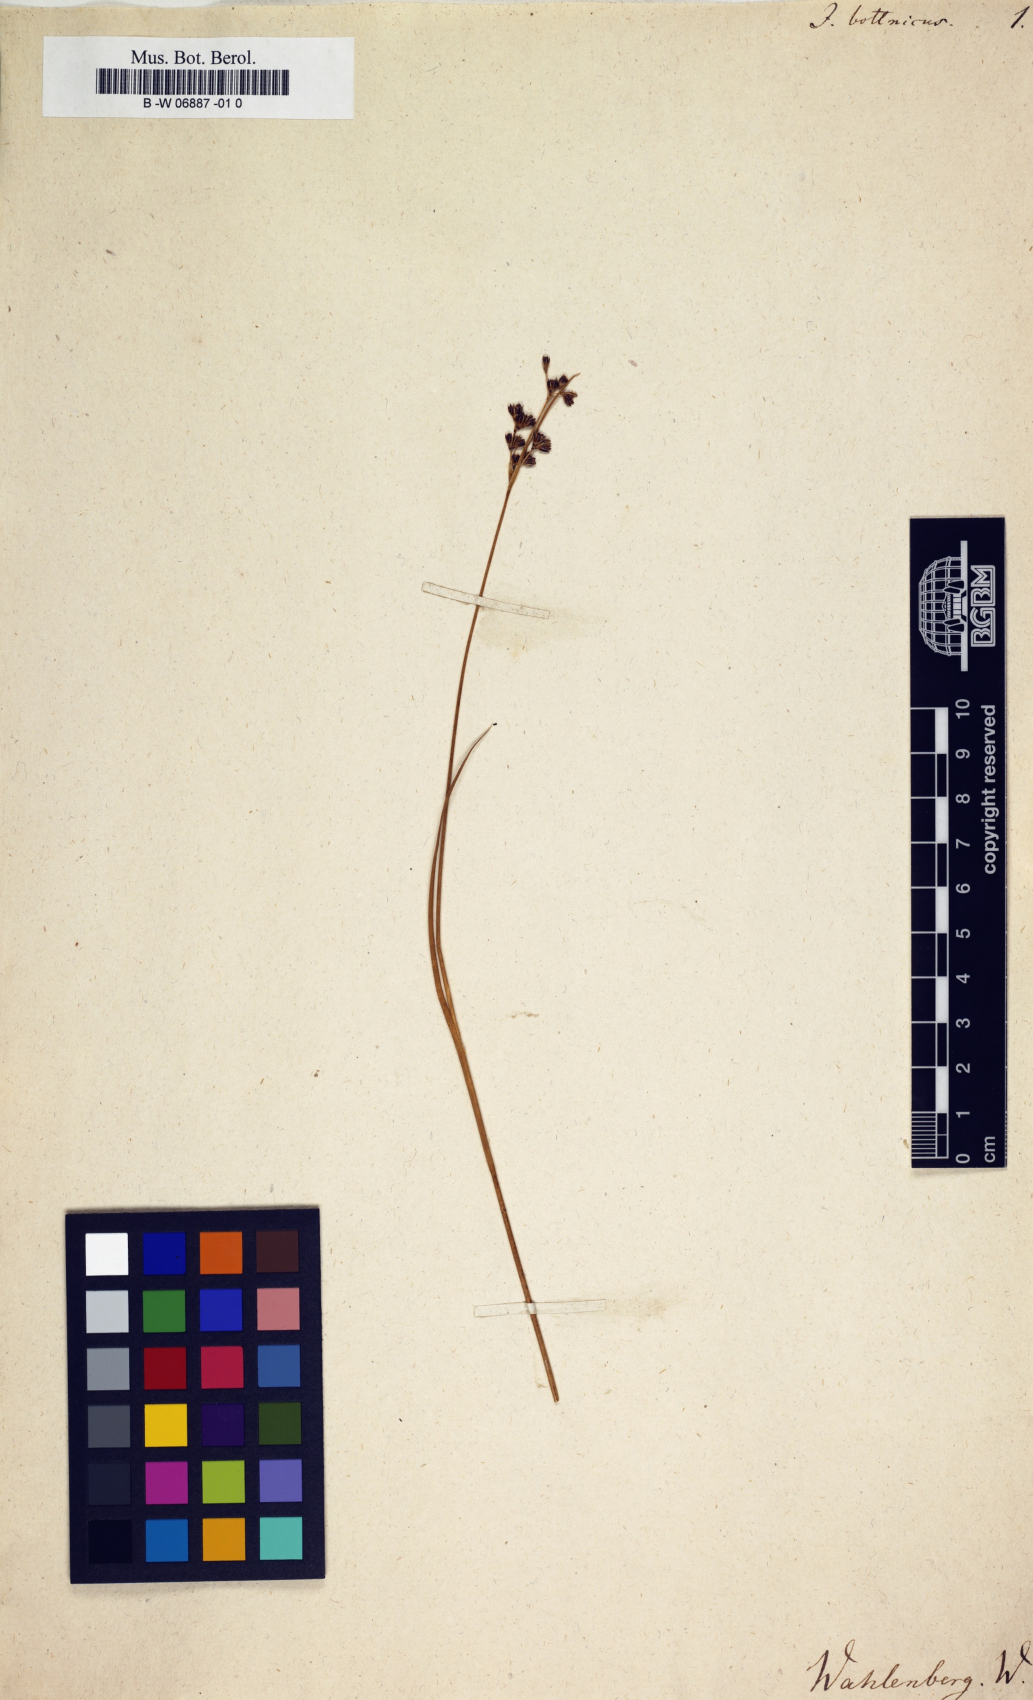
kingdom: Plantae
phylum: Tracheophyta
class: Liliopsida
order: Poales
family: Juncaceae
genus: Juncus
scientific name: Juncus gerardi
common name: Saltmarsh rush
